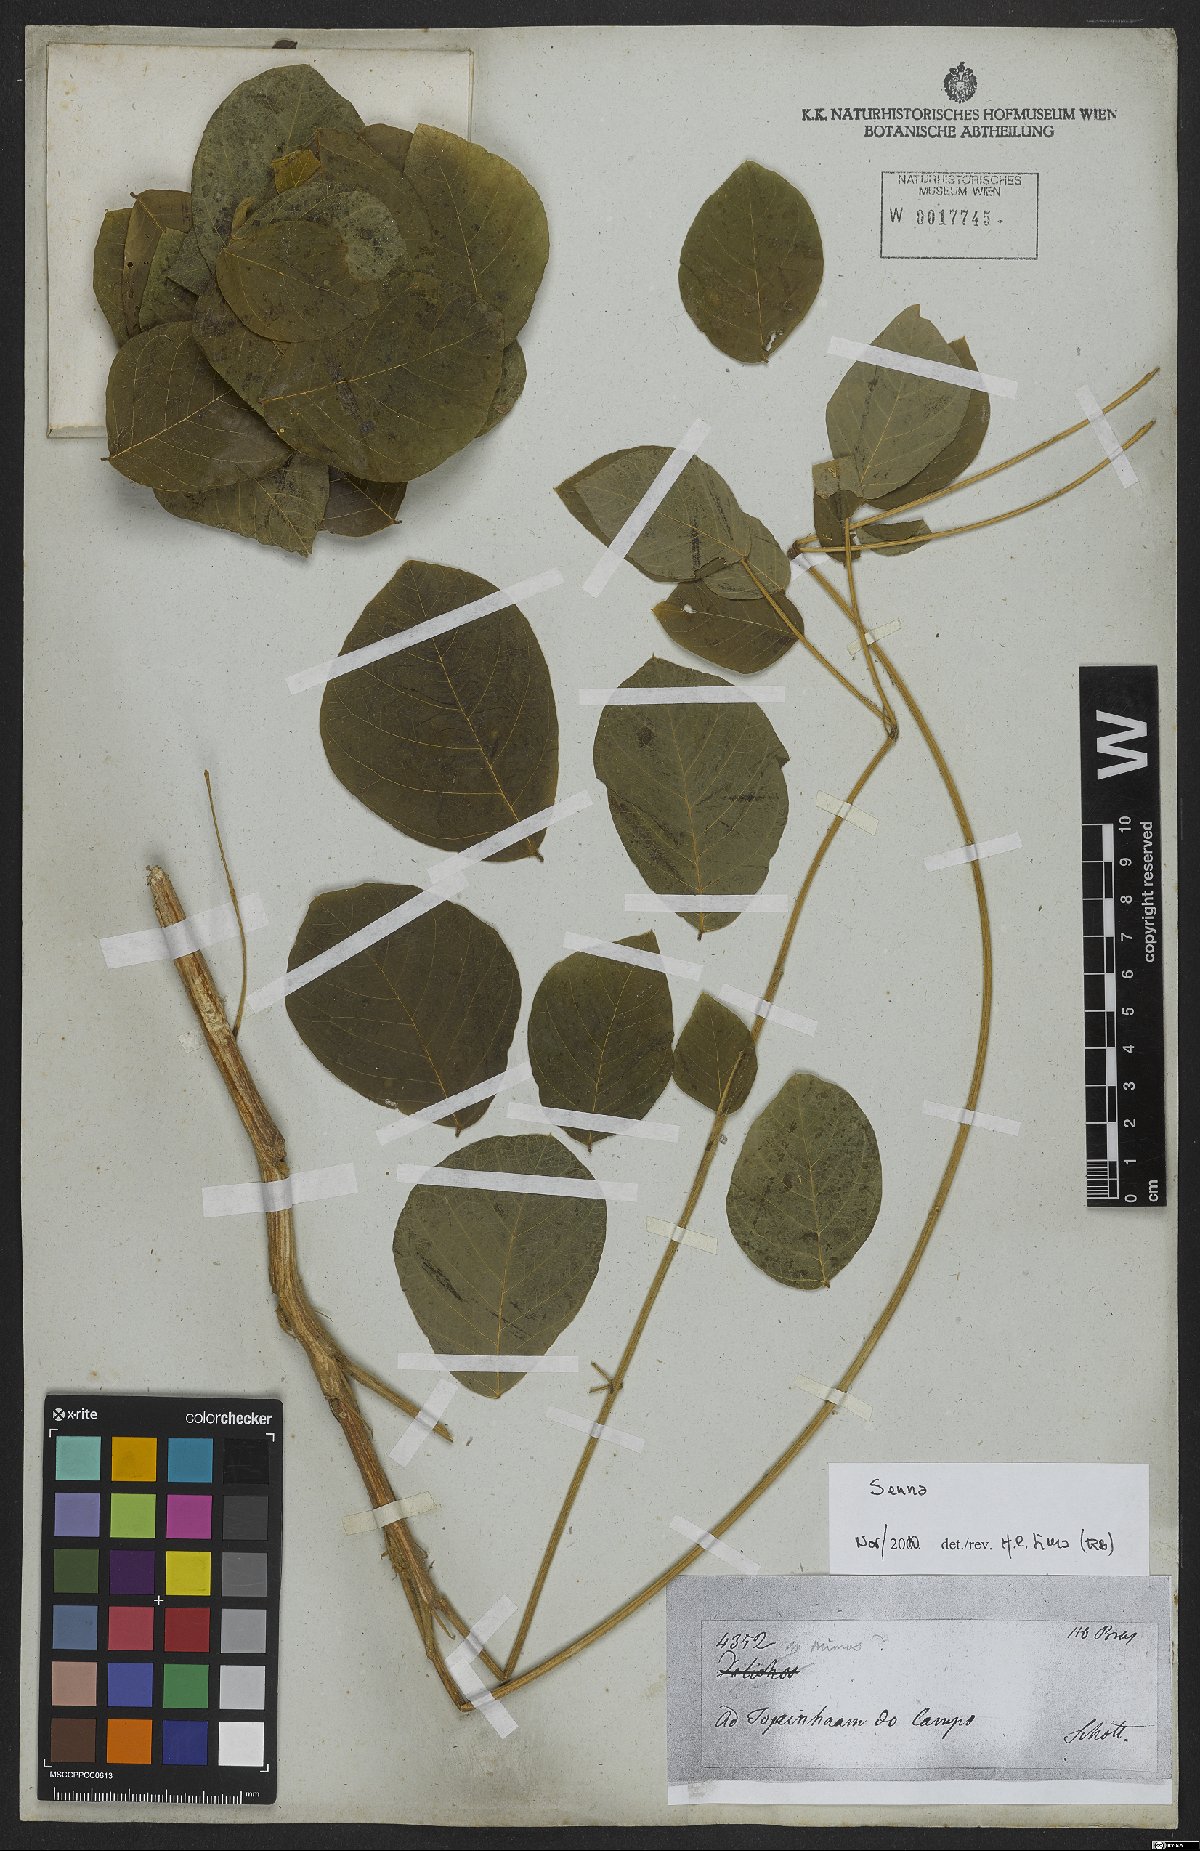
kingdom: Plantae
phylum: Tracheophyta
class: Magnoliopsida
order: Fabales
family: Fabaceae
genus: Senna
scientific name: Senna
